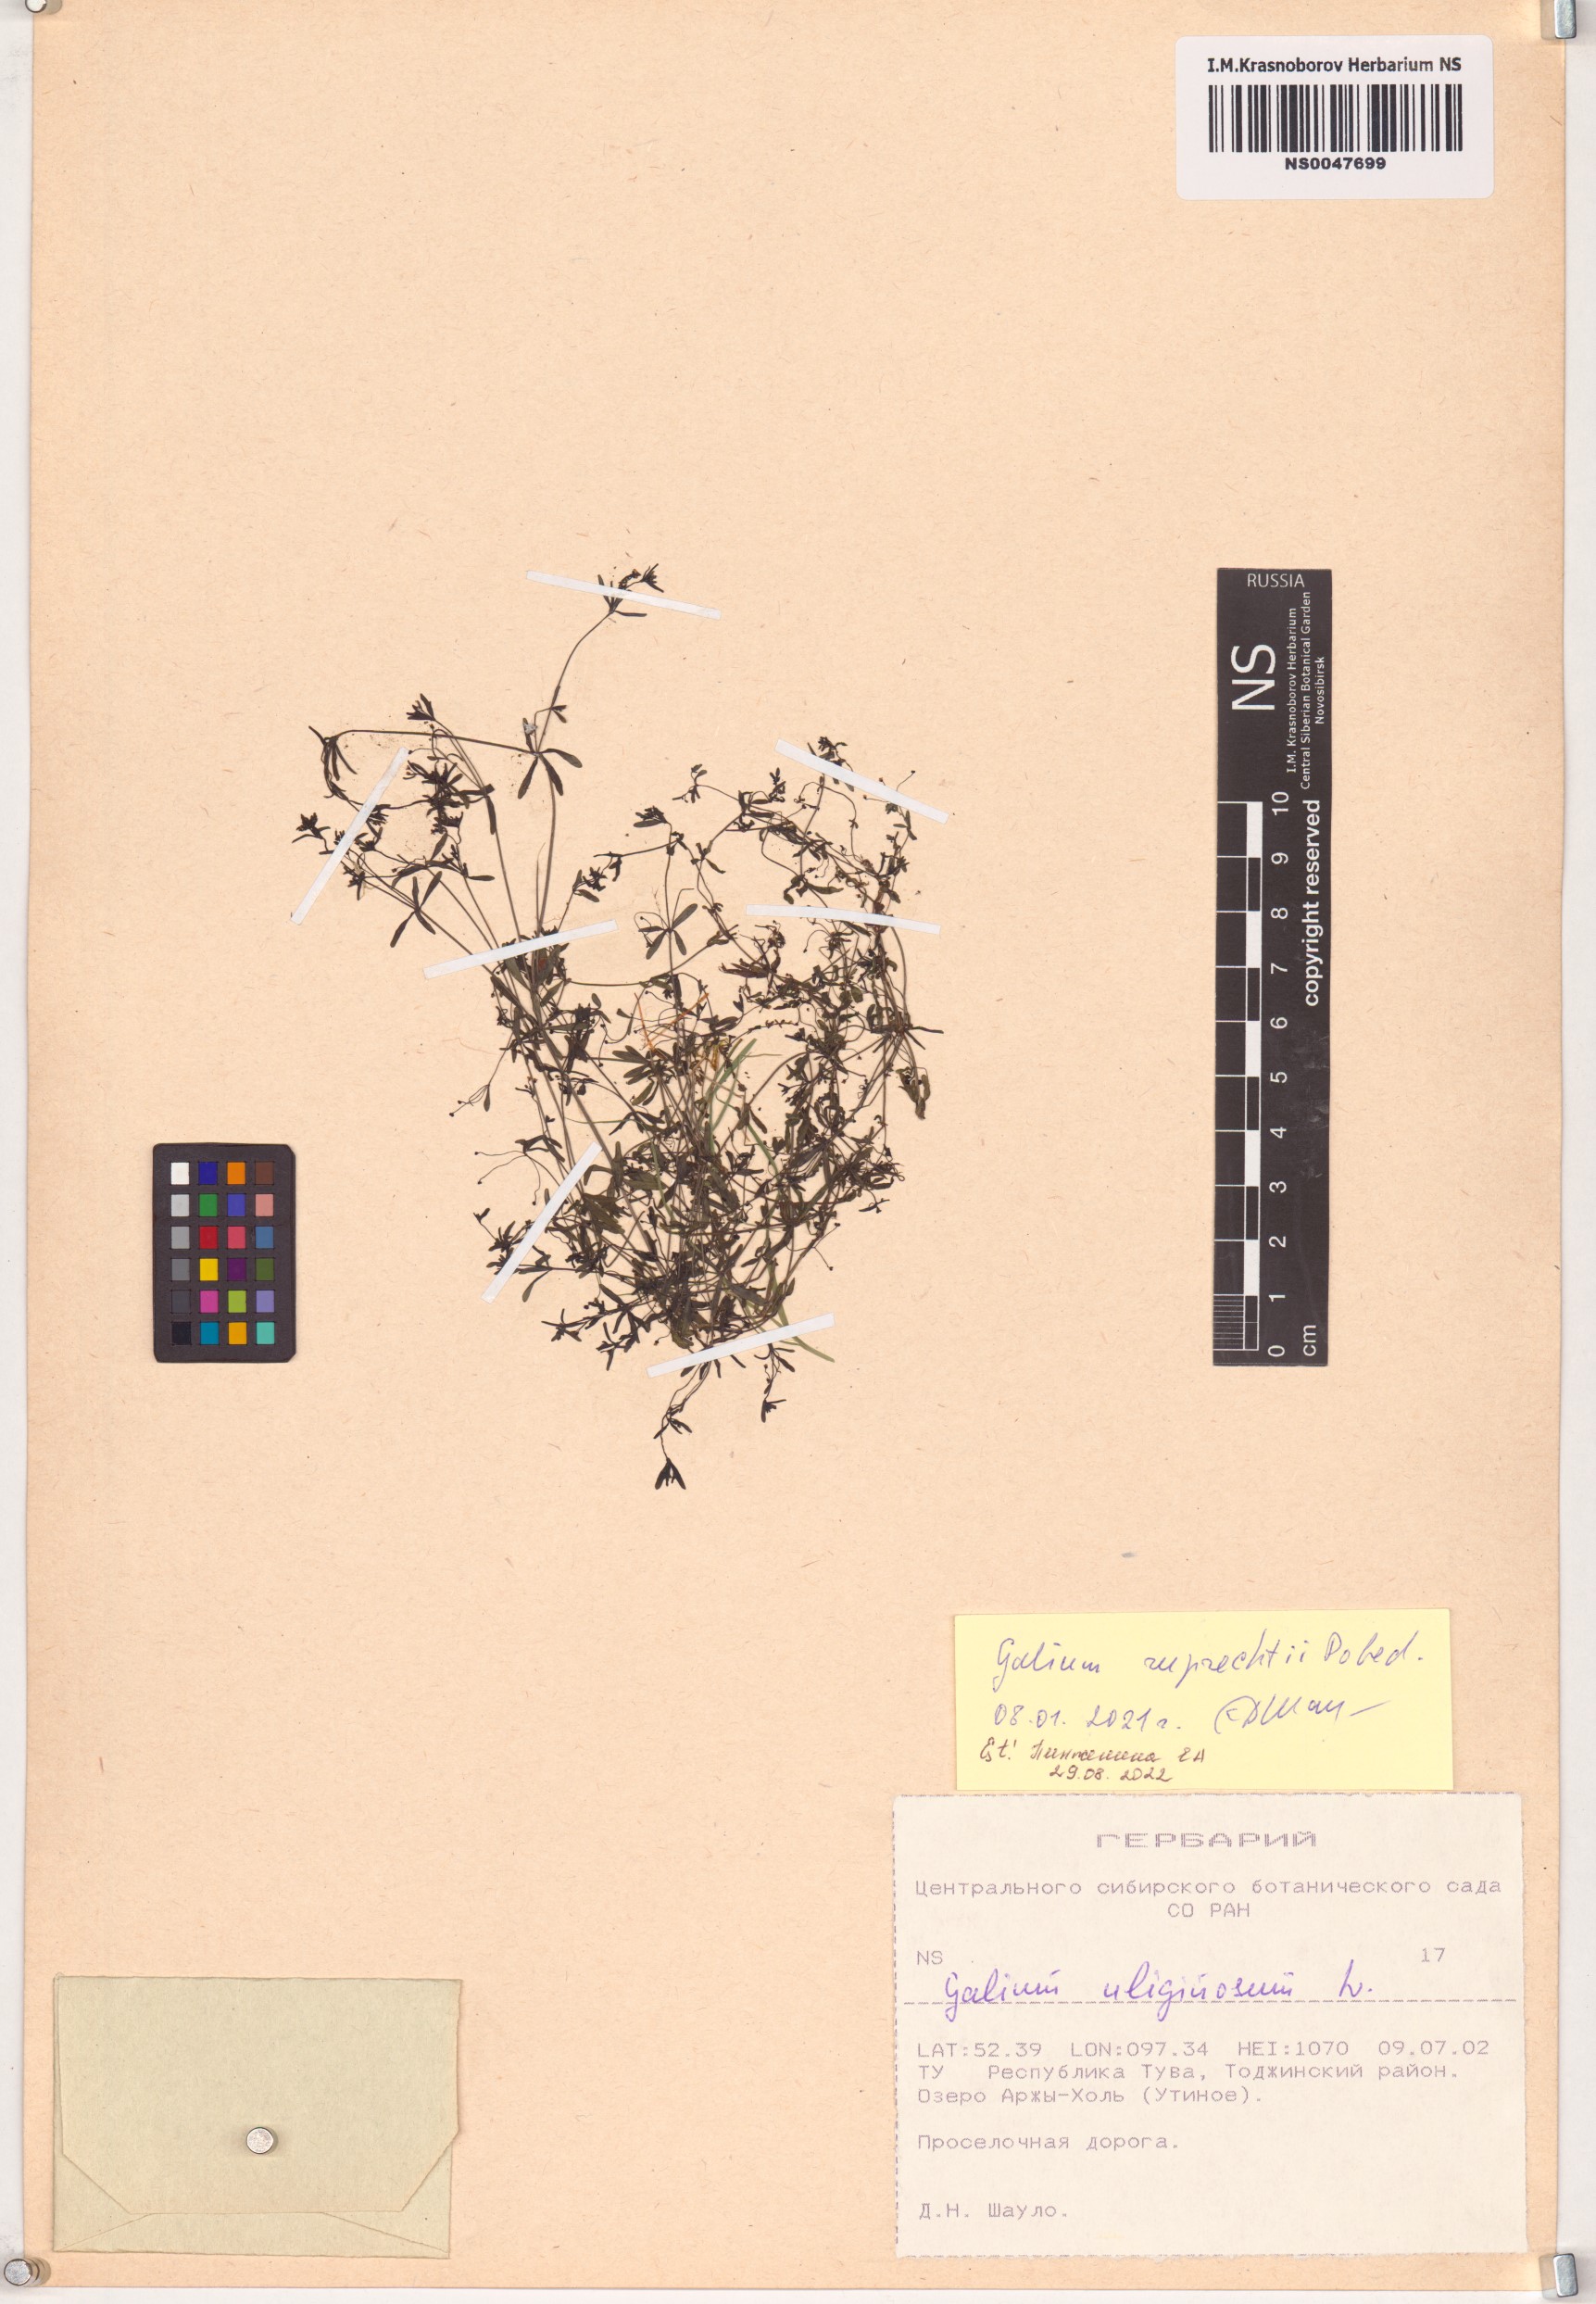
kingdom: Plantae
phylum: Tracheophyta
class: Magnoliopsida
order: Gentianales
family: Rubiaceae
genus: Galium
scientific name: Galium trifidum
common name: Small bedstraw
